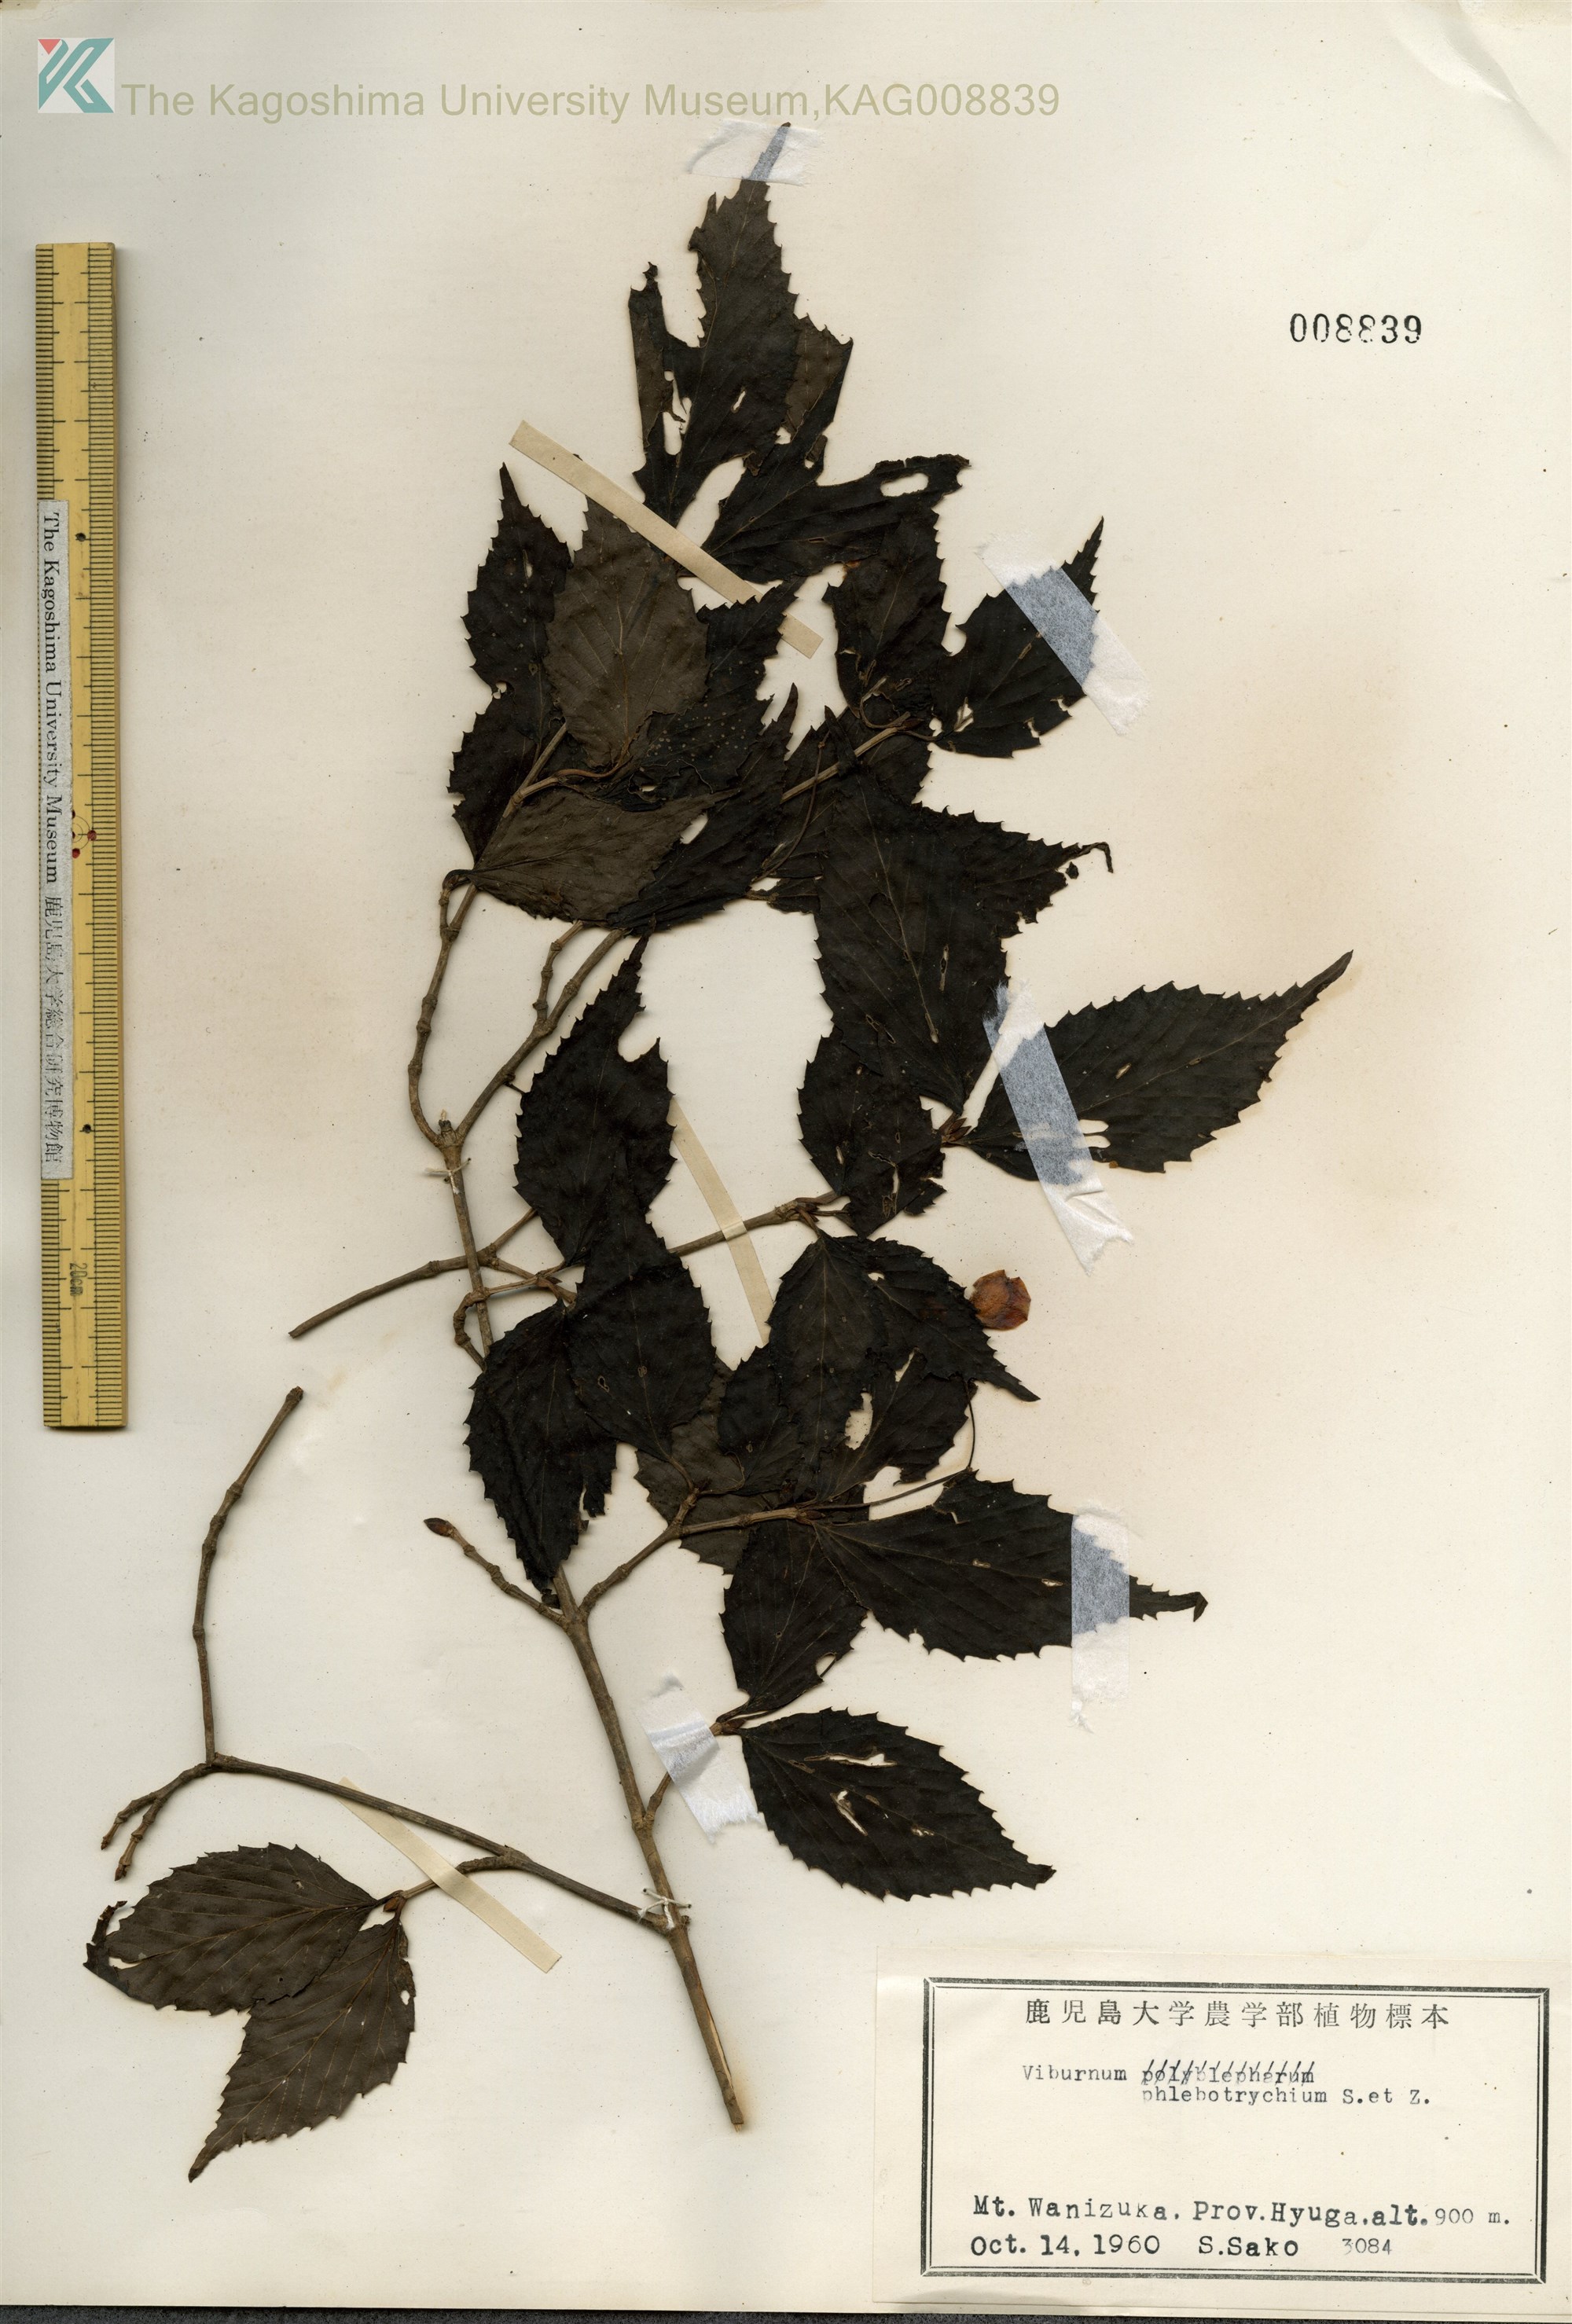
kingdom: Plantae
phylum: Tracheophyta
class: Magnoliopsida
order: Dipsacales
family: Viburnaceae
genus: Viburnum
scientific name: Viburnum phlebotrichum
